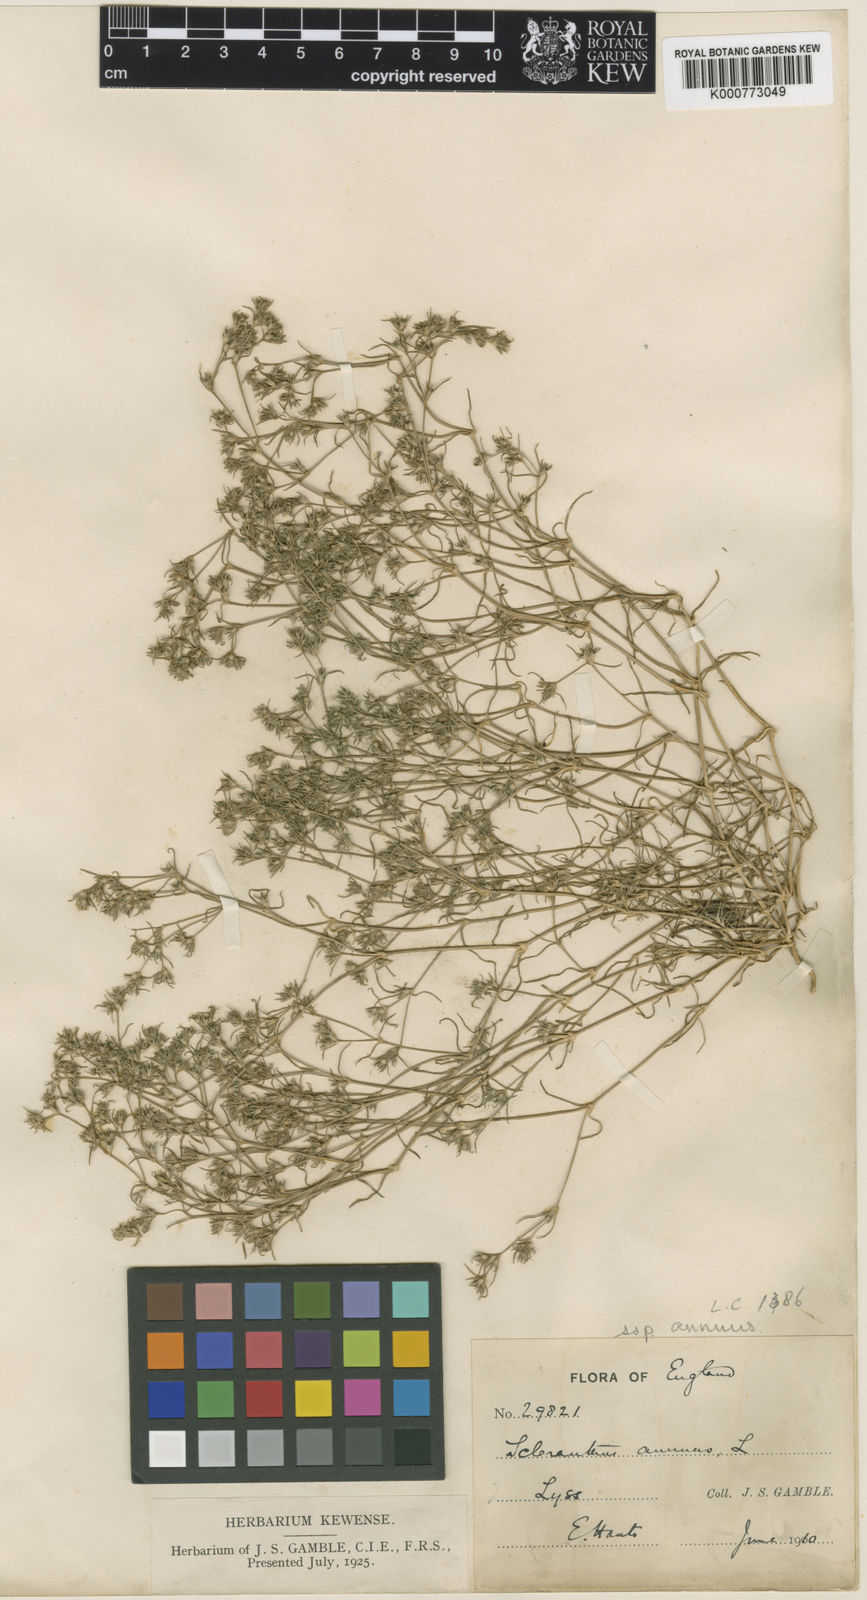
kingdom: Plantae
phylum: Tracheophyta
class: Magnoliopsida
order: Caryophyllales
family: Caryophyllaceae
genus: Scleranthus
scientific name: Scleranthus annuus
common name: Annual knawel
